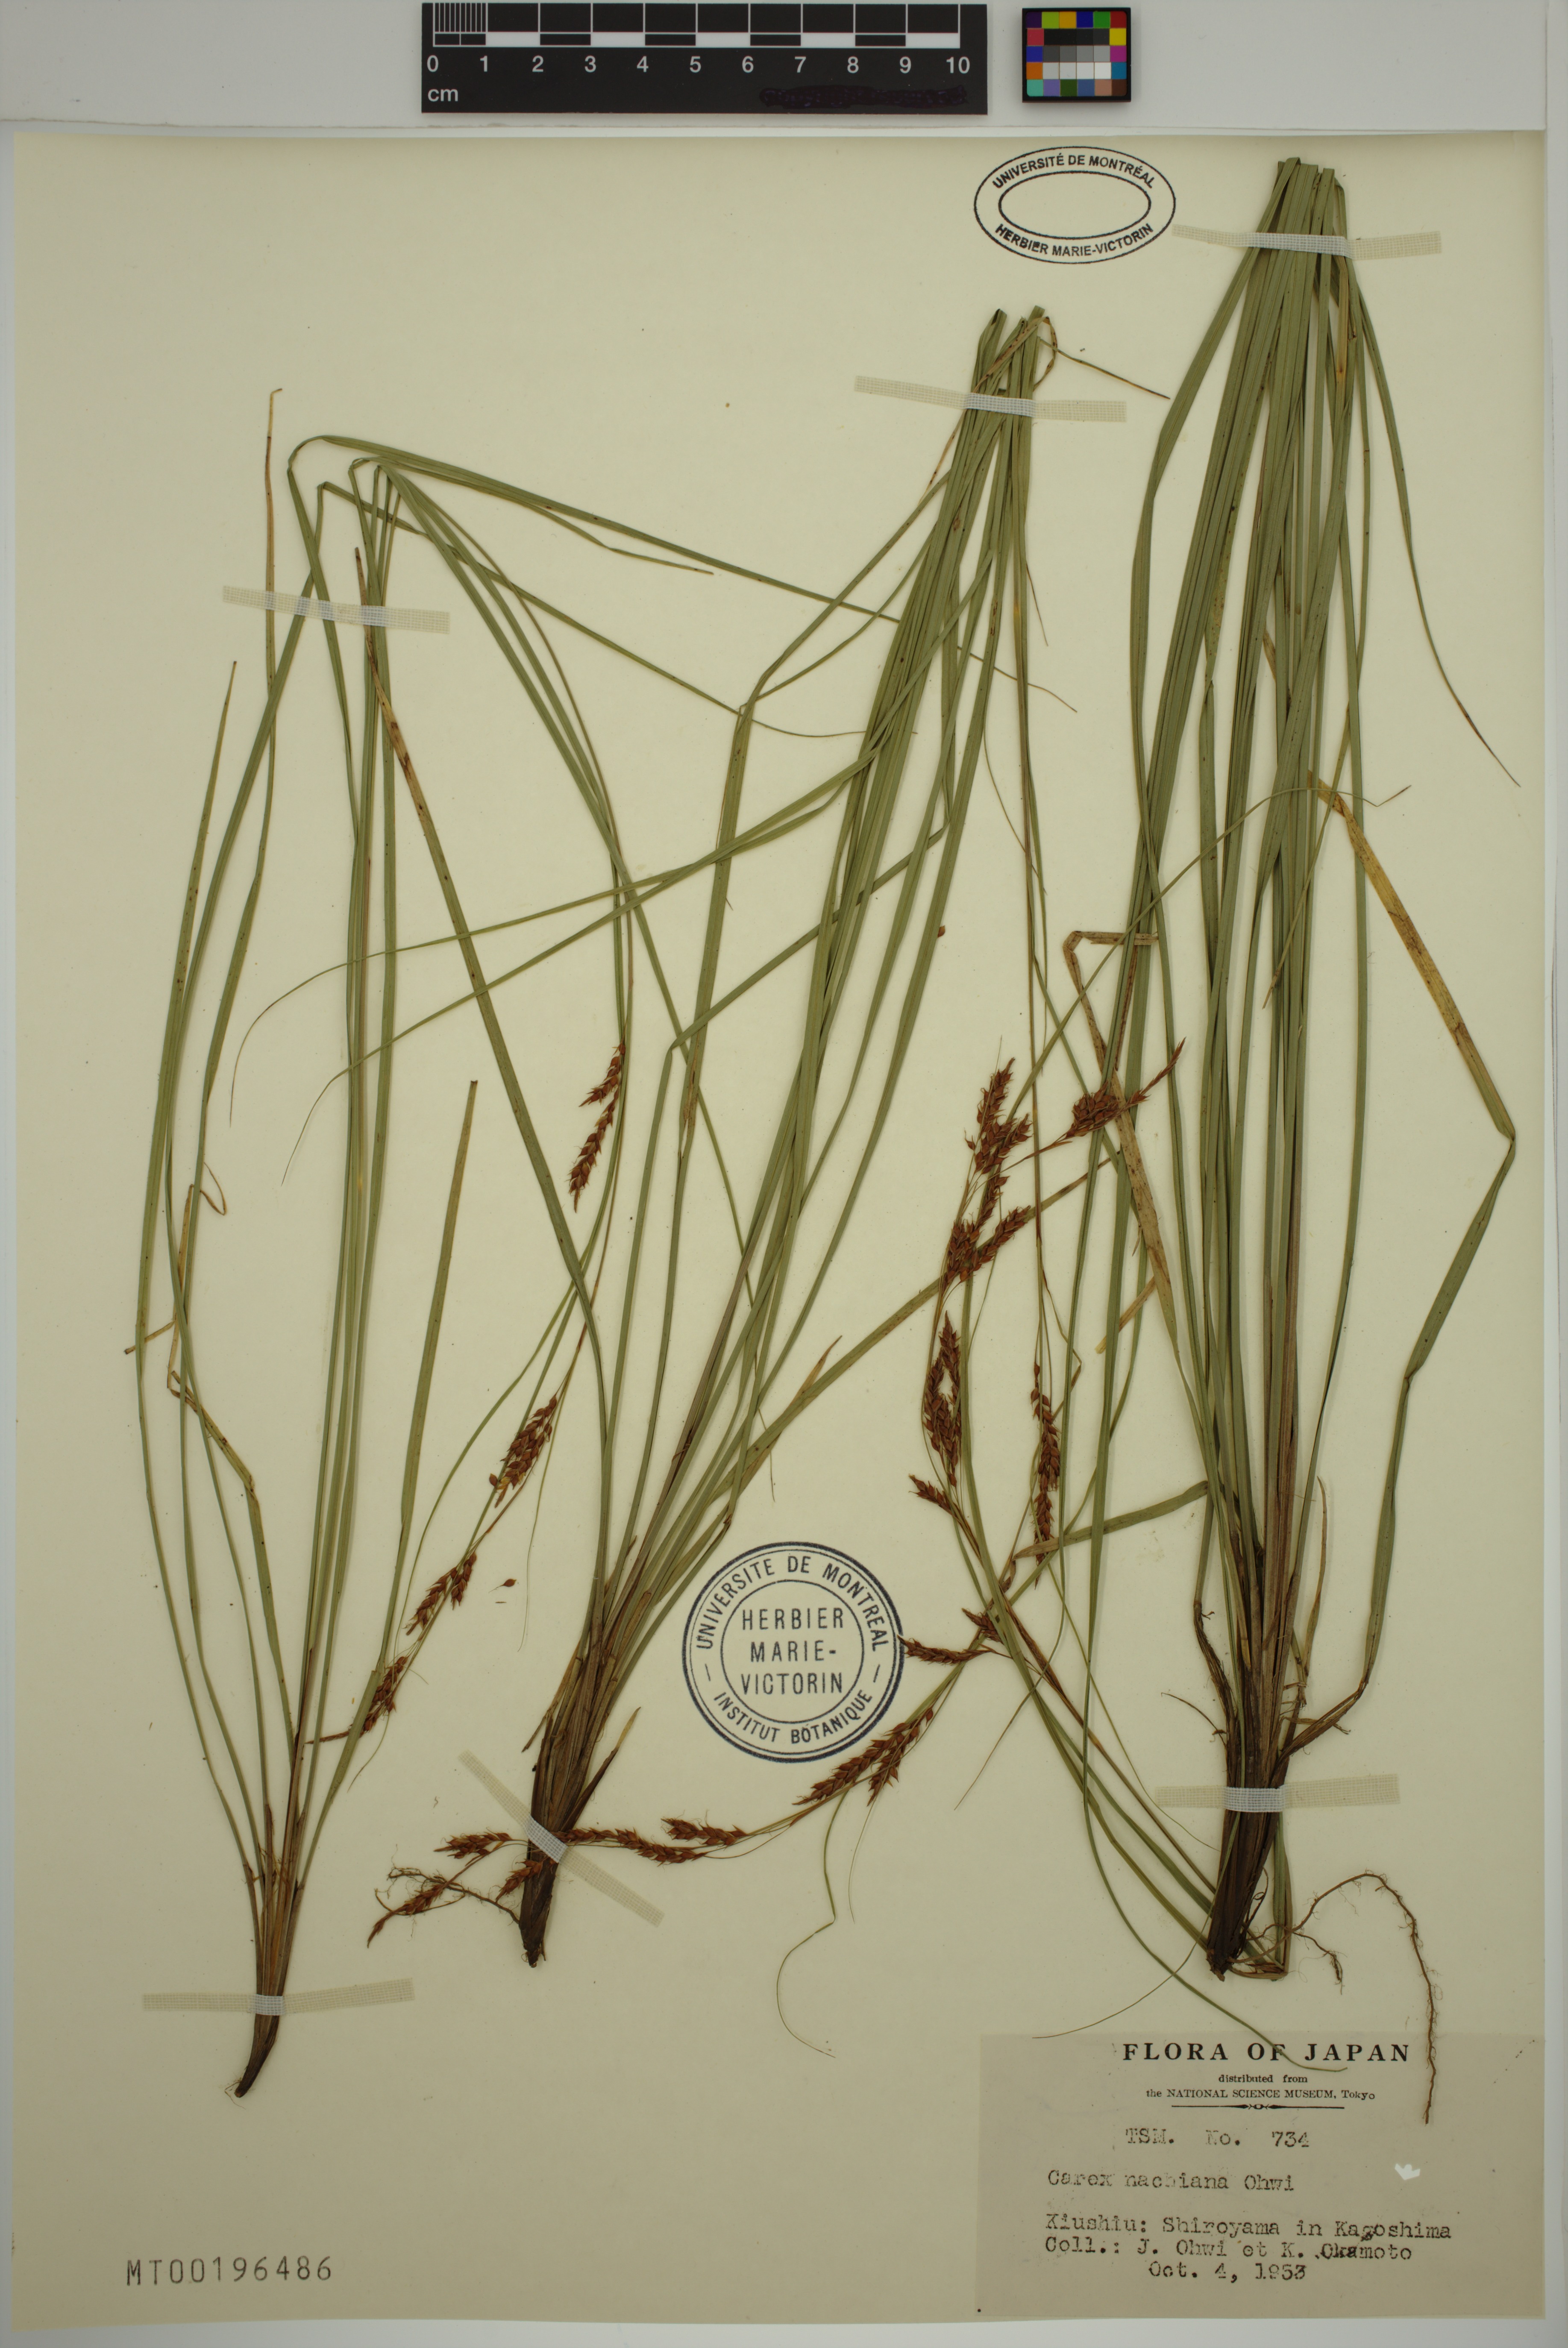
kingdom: Plantae
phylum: Tracheophyta
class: Liliopsida
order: Poales
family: Cyperaceae
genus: Carex
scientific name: Carex nachiana
